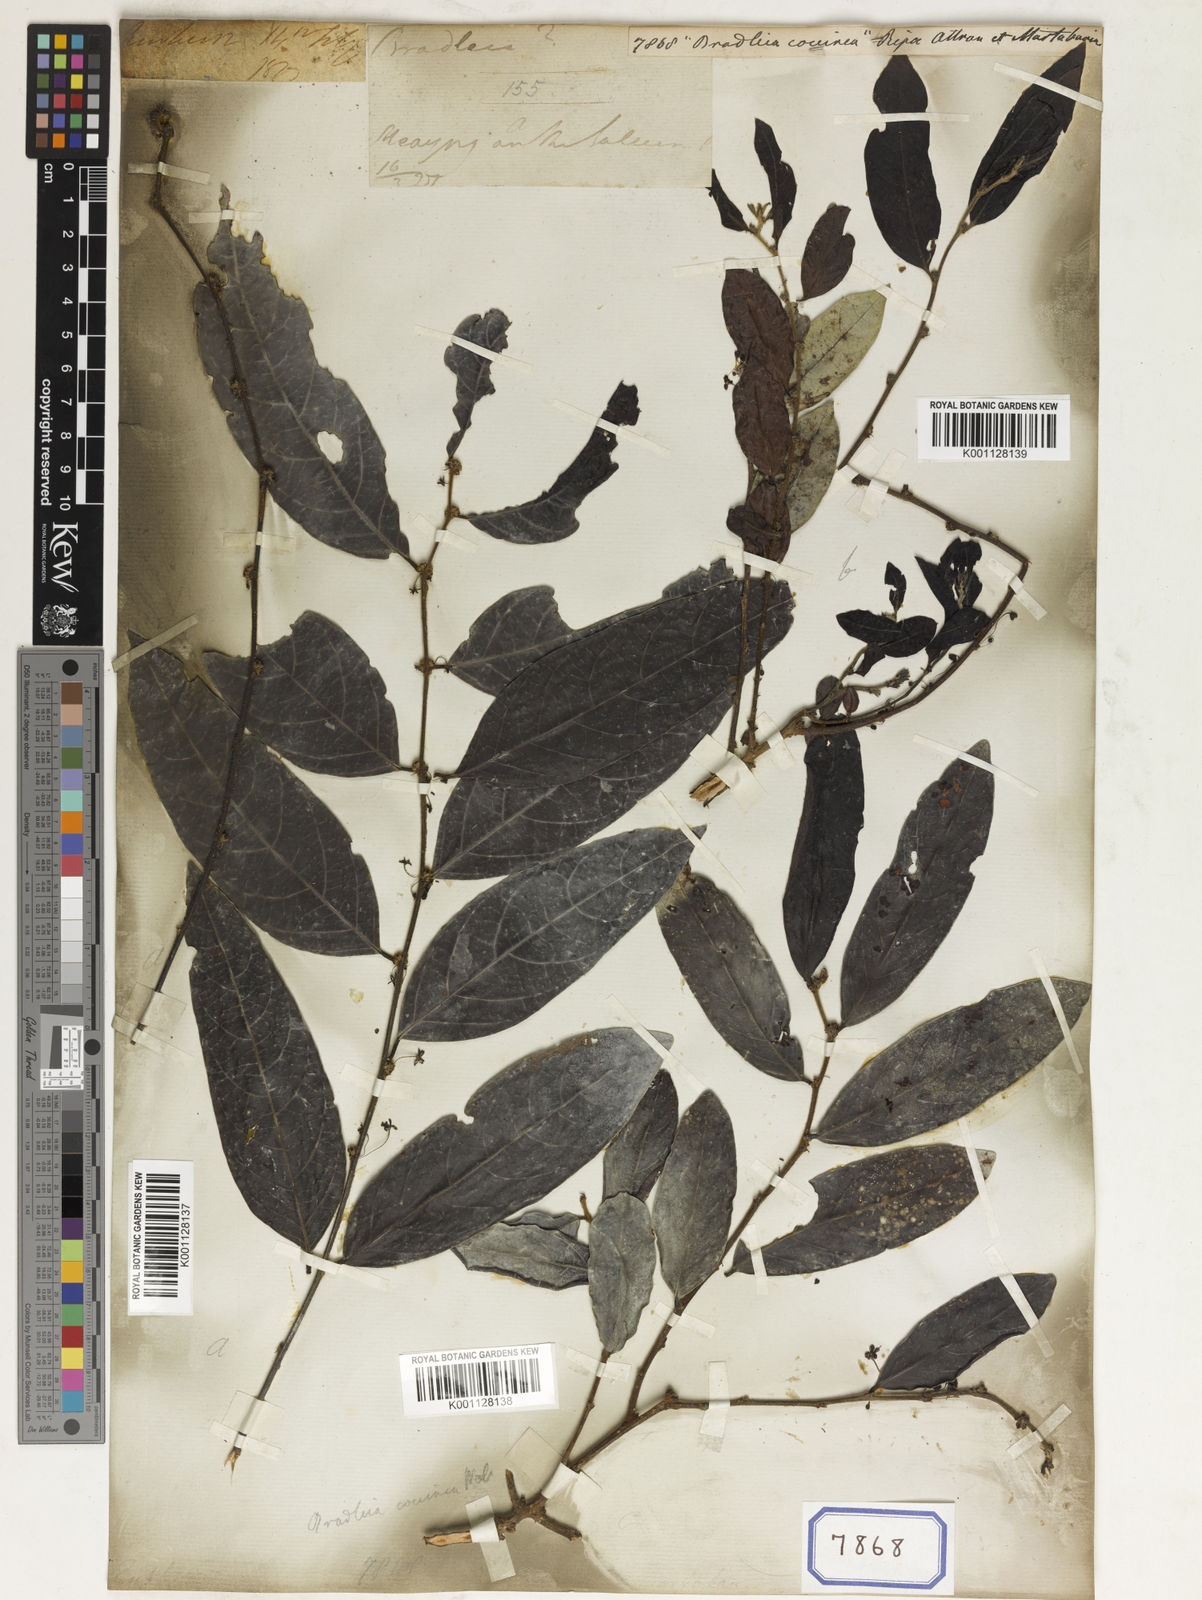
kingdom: Plantae
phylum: Tracheophyta
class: Magnoliopsida
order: Malpighiales
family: Euphorbiaceae
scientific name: Euphorbiaceae
